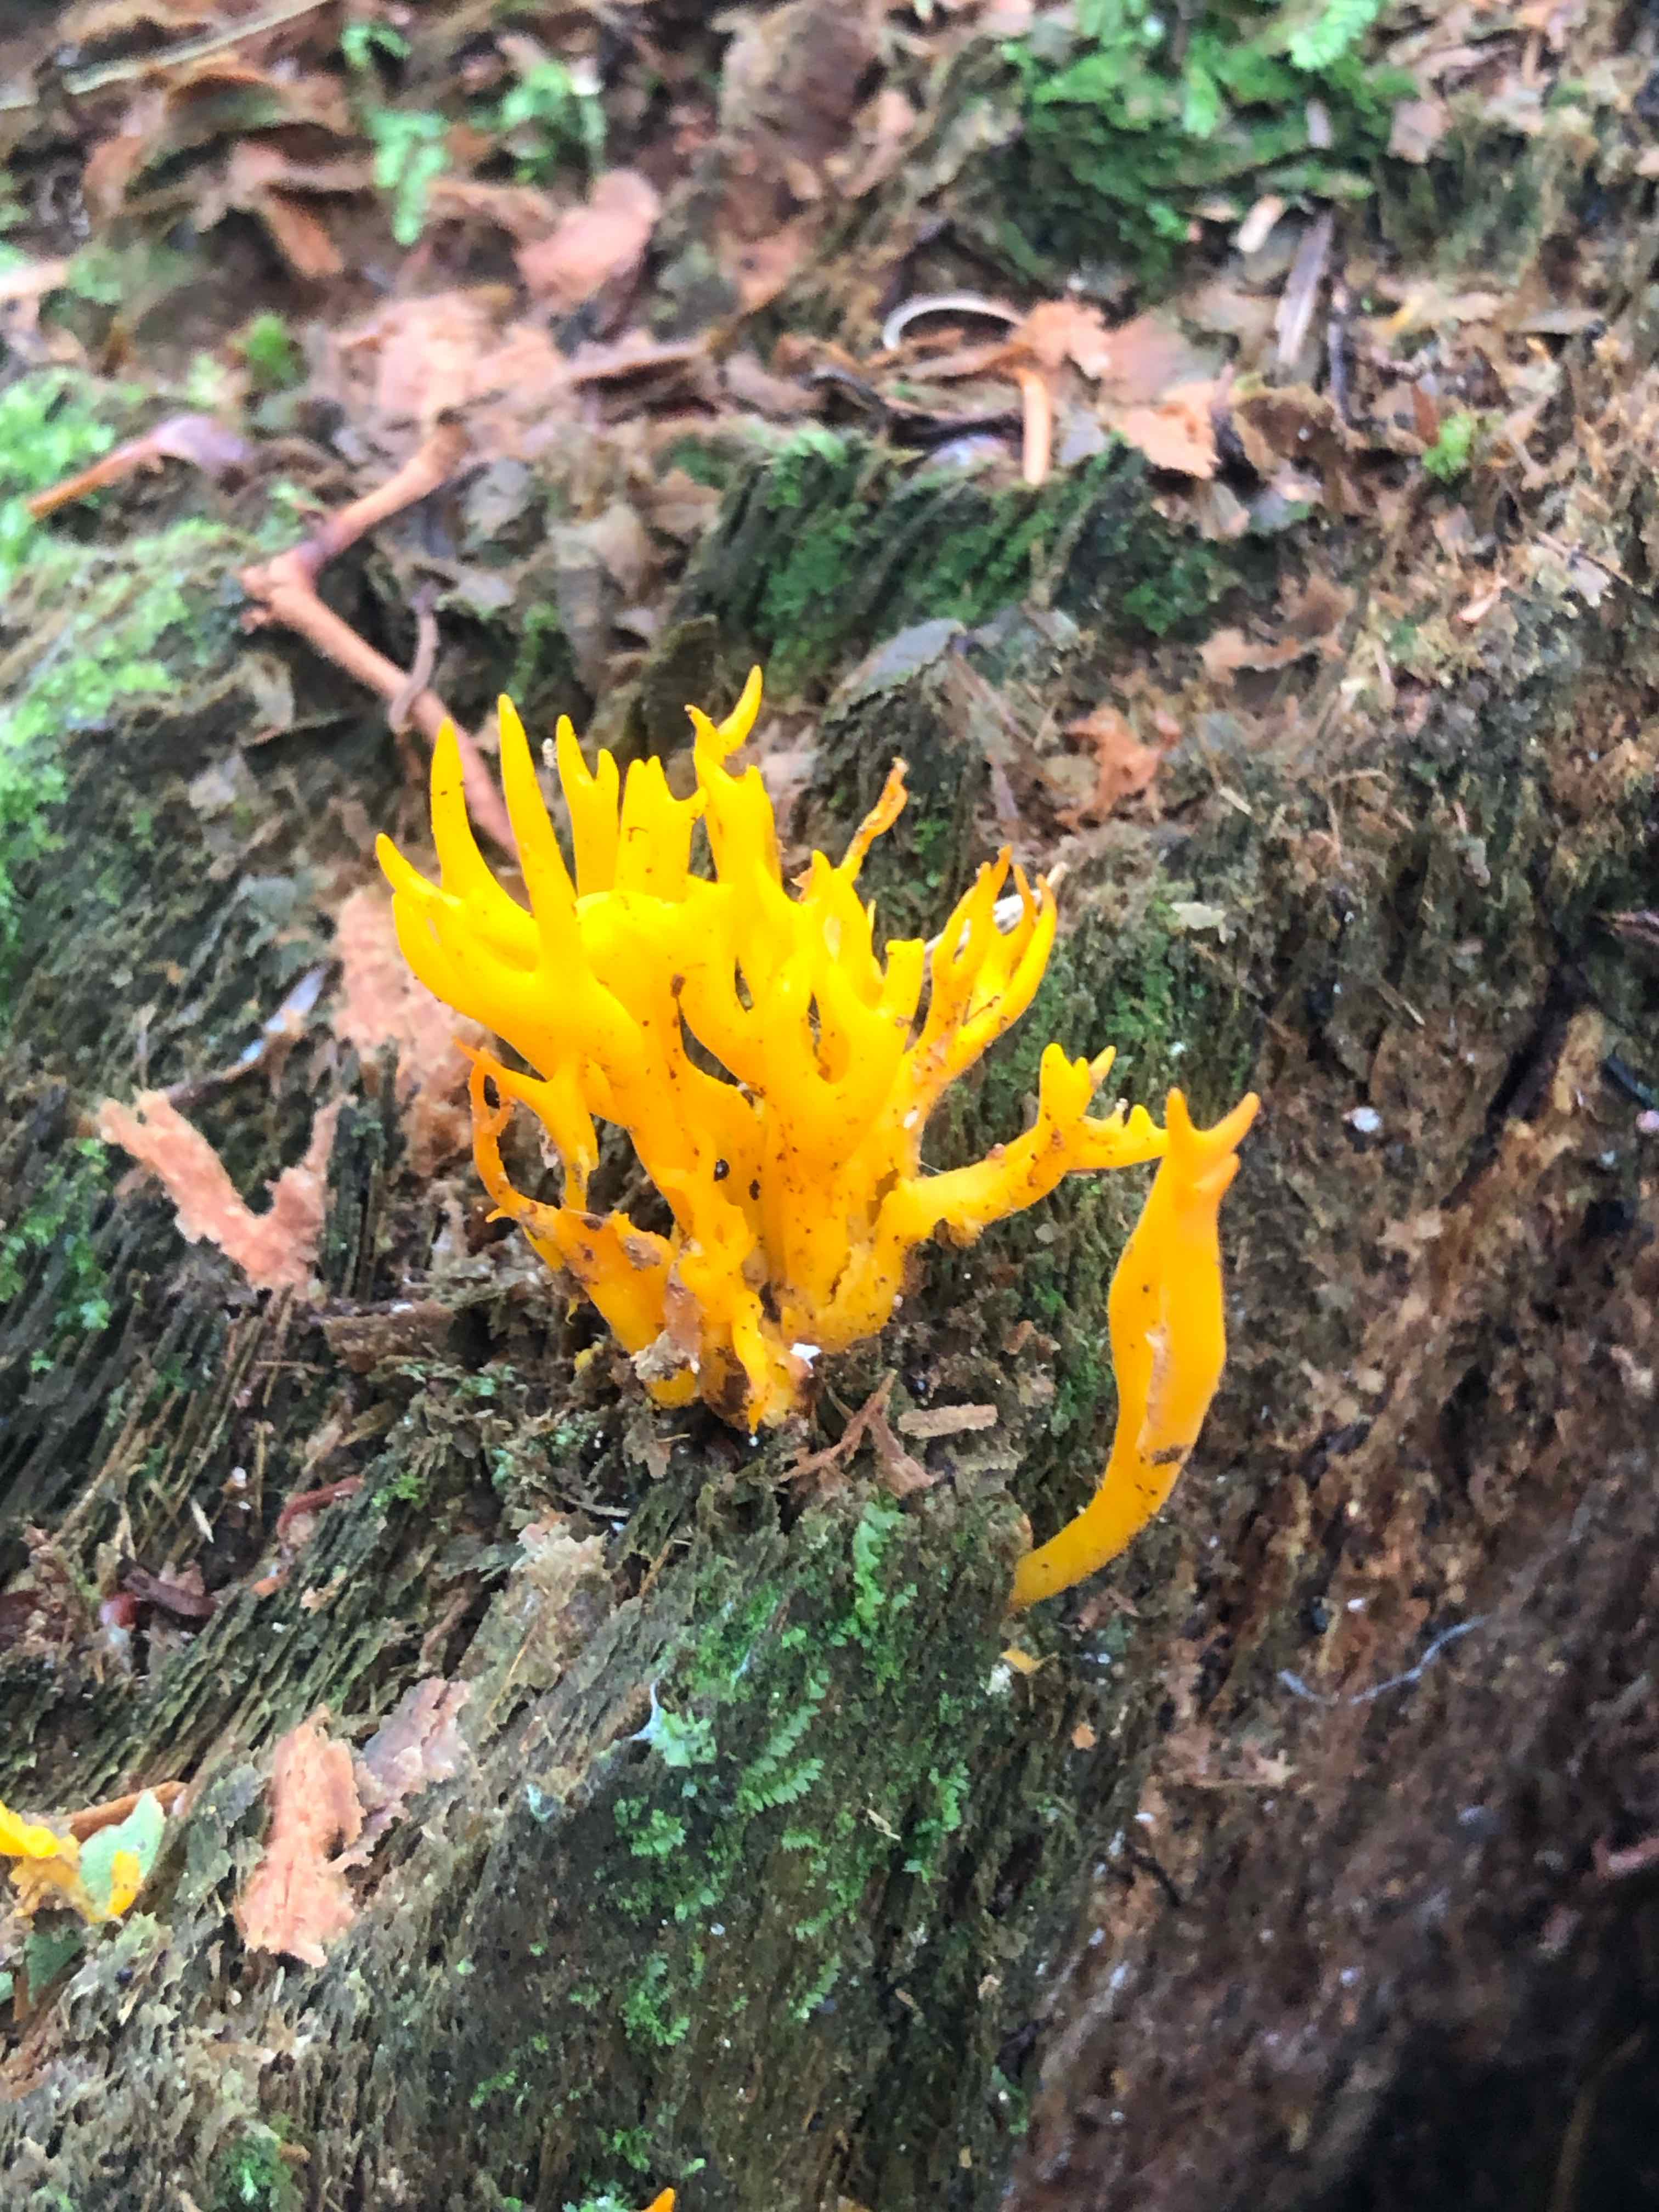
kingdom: Fungi
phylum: Basidiomycota
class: Dacrymycetes
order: Dacrymycetales
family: Dacrymycetaceae
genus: Calocera
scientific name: Calocera viscosa
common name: almindelig guldgaffel
